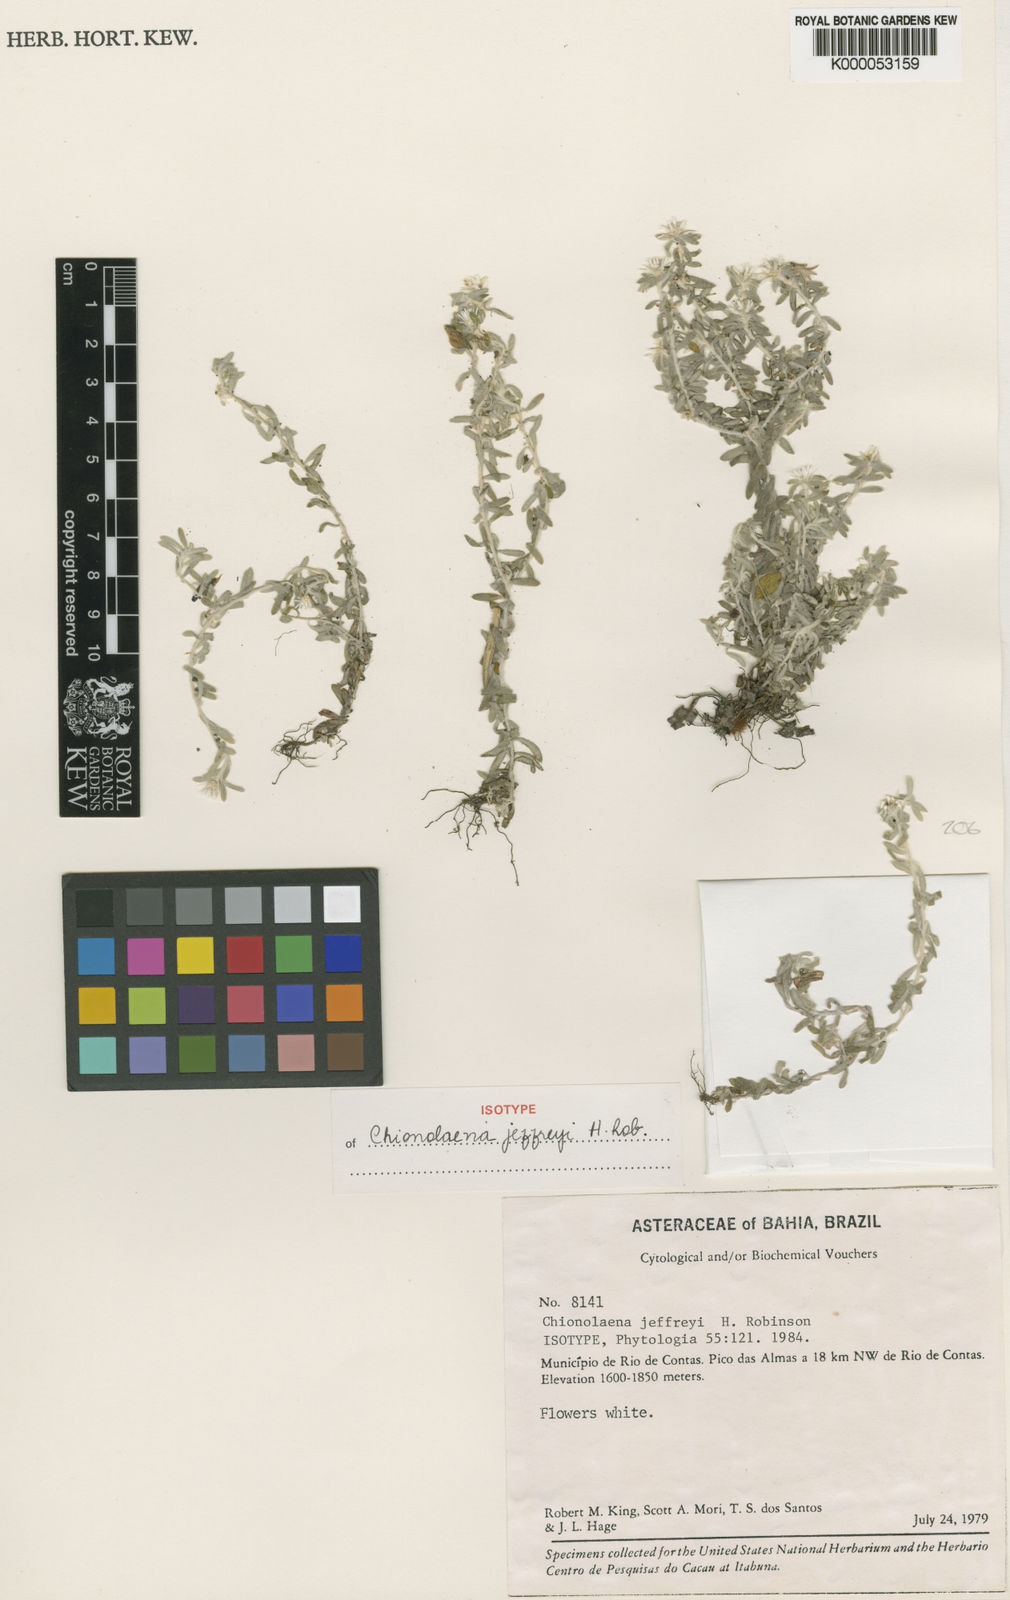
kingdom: Plantae
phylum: Tracheophyta
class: Magnoliopsida
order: Asterales
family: Asteraceae
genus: Chionolaena
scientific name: Chionolaena jeffreyi
